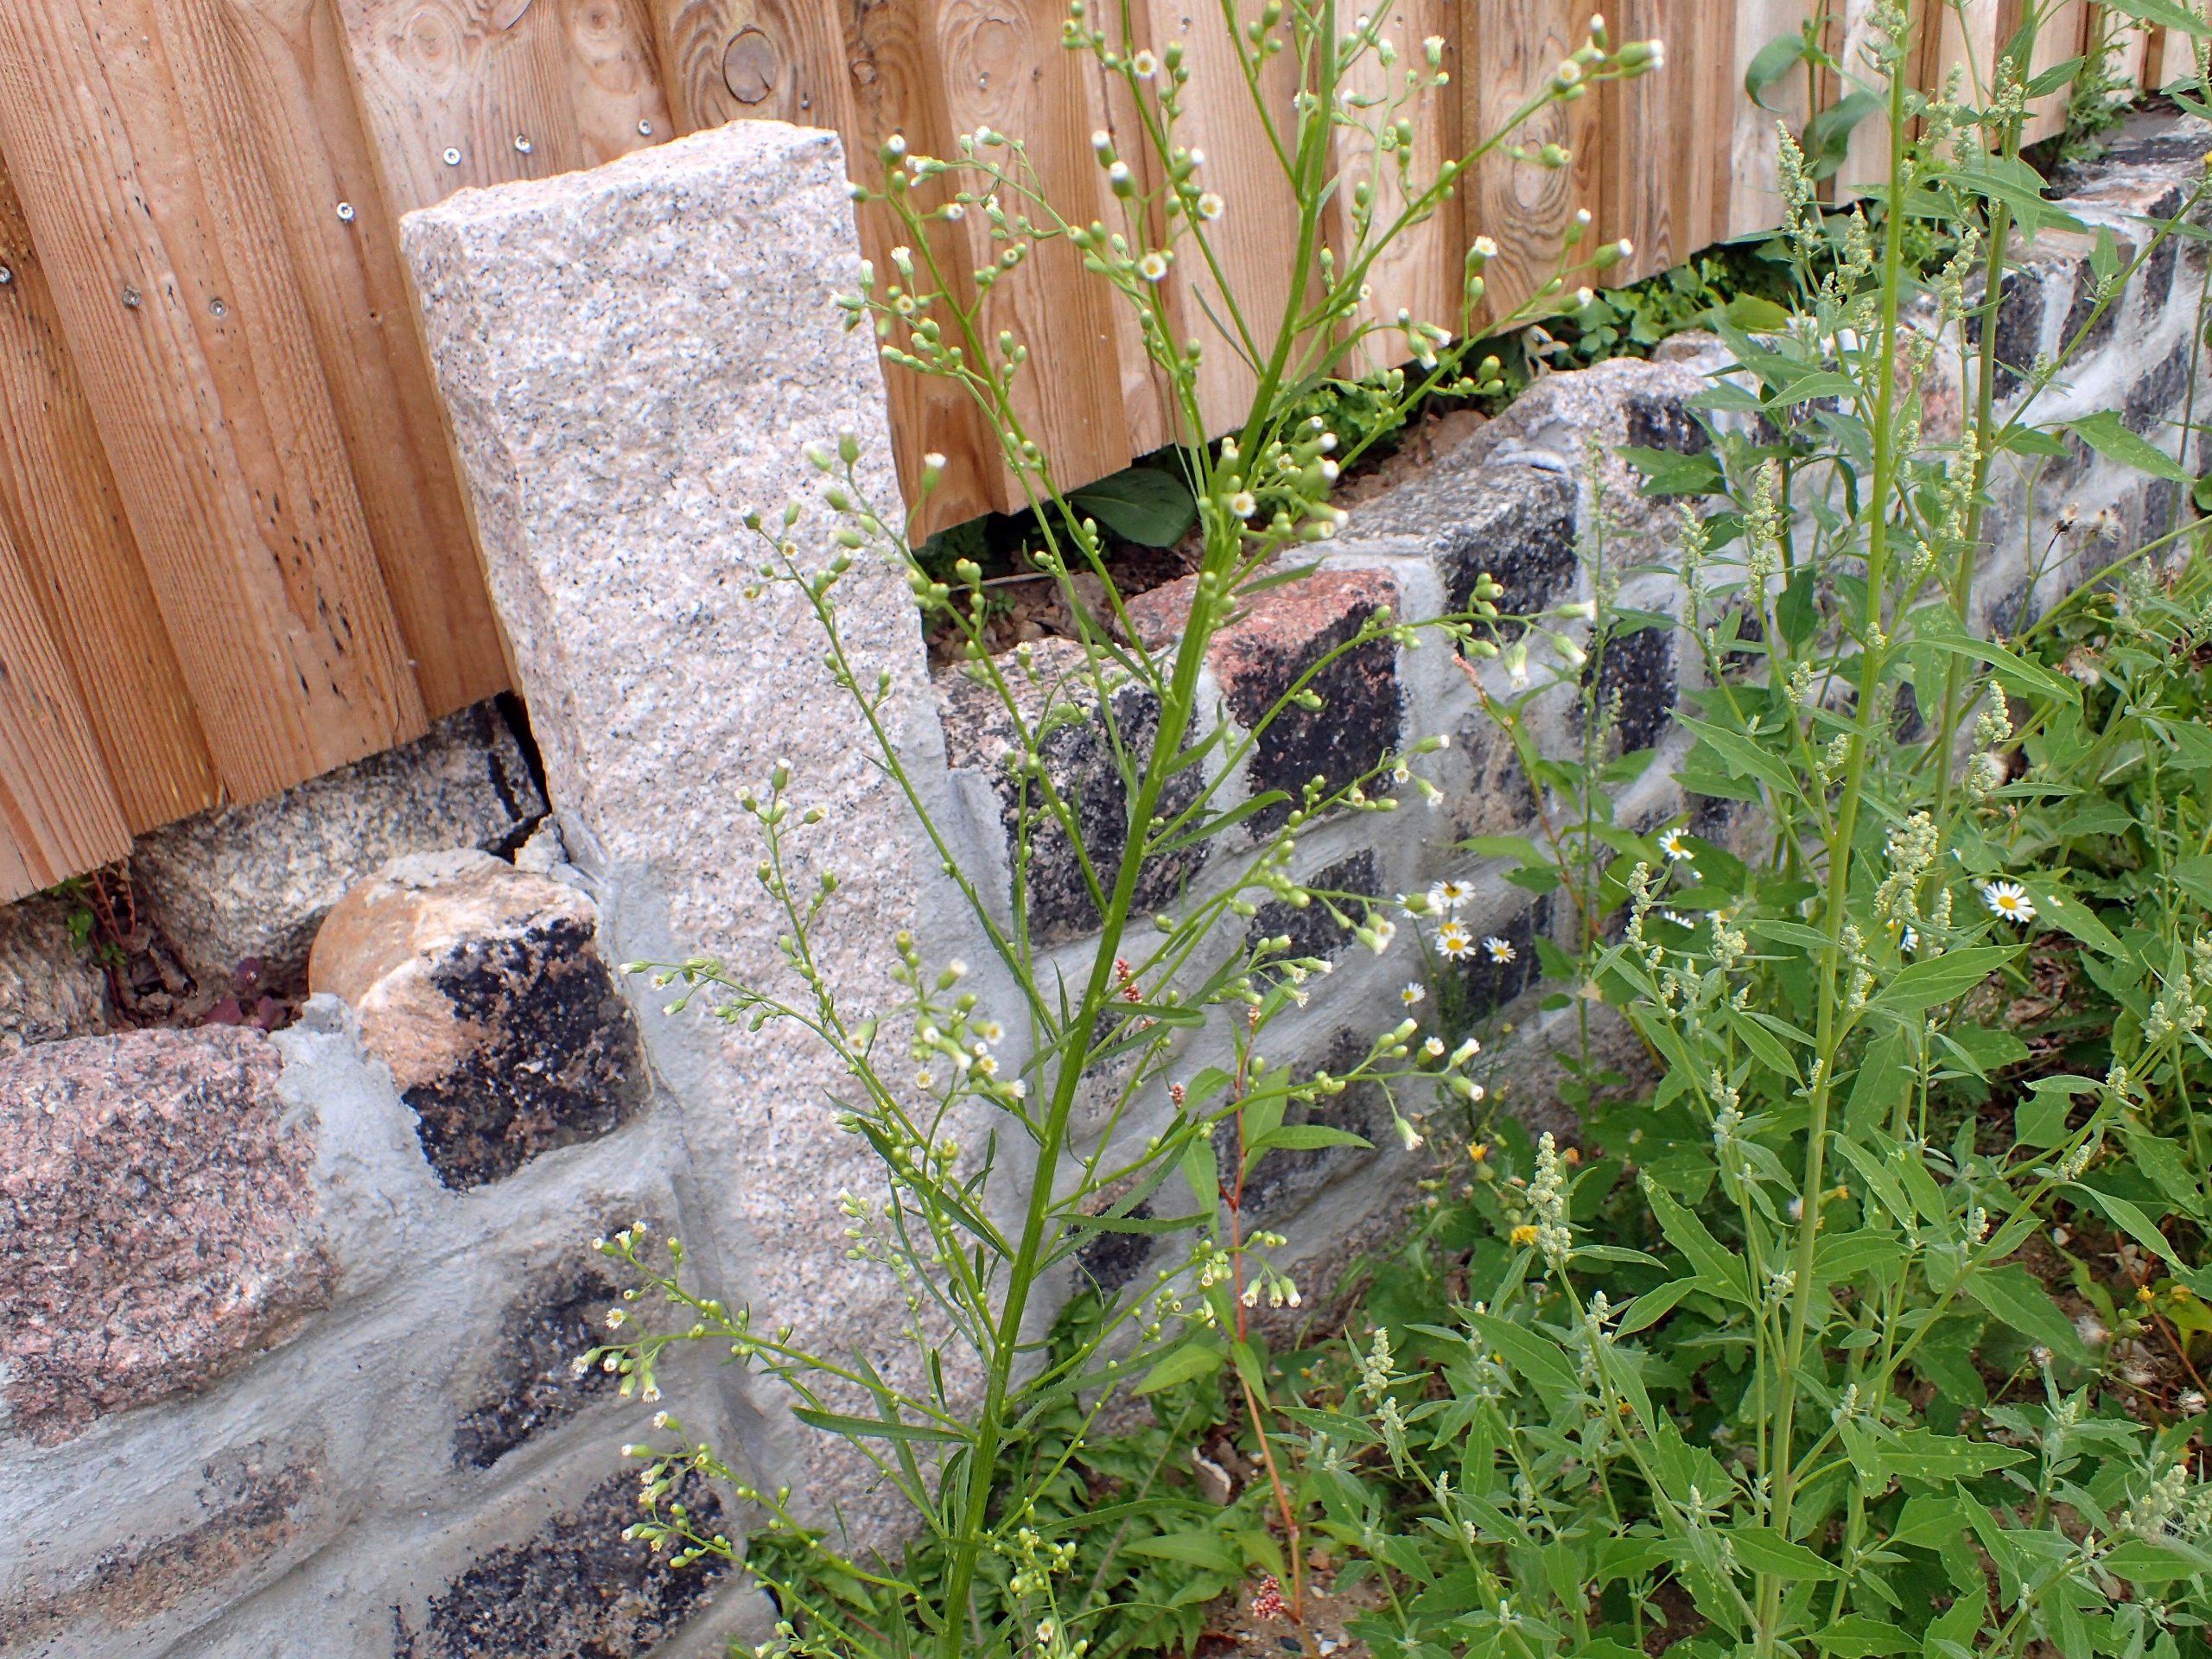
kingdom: Plantae
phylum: Tracheophyta
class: Magnoliopsida
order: Asterales
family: Asteraceae
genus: Erigeron
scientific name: Erigeron canadensis
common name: Kanadisk bakkestjerne
